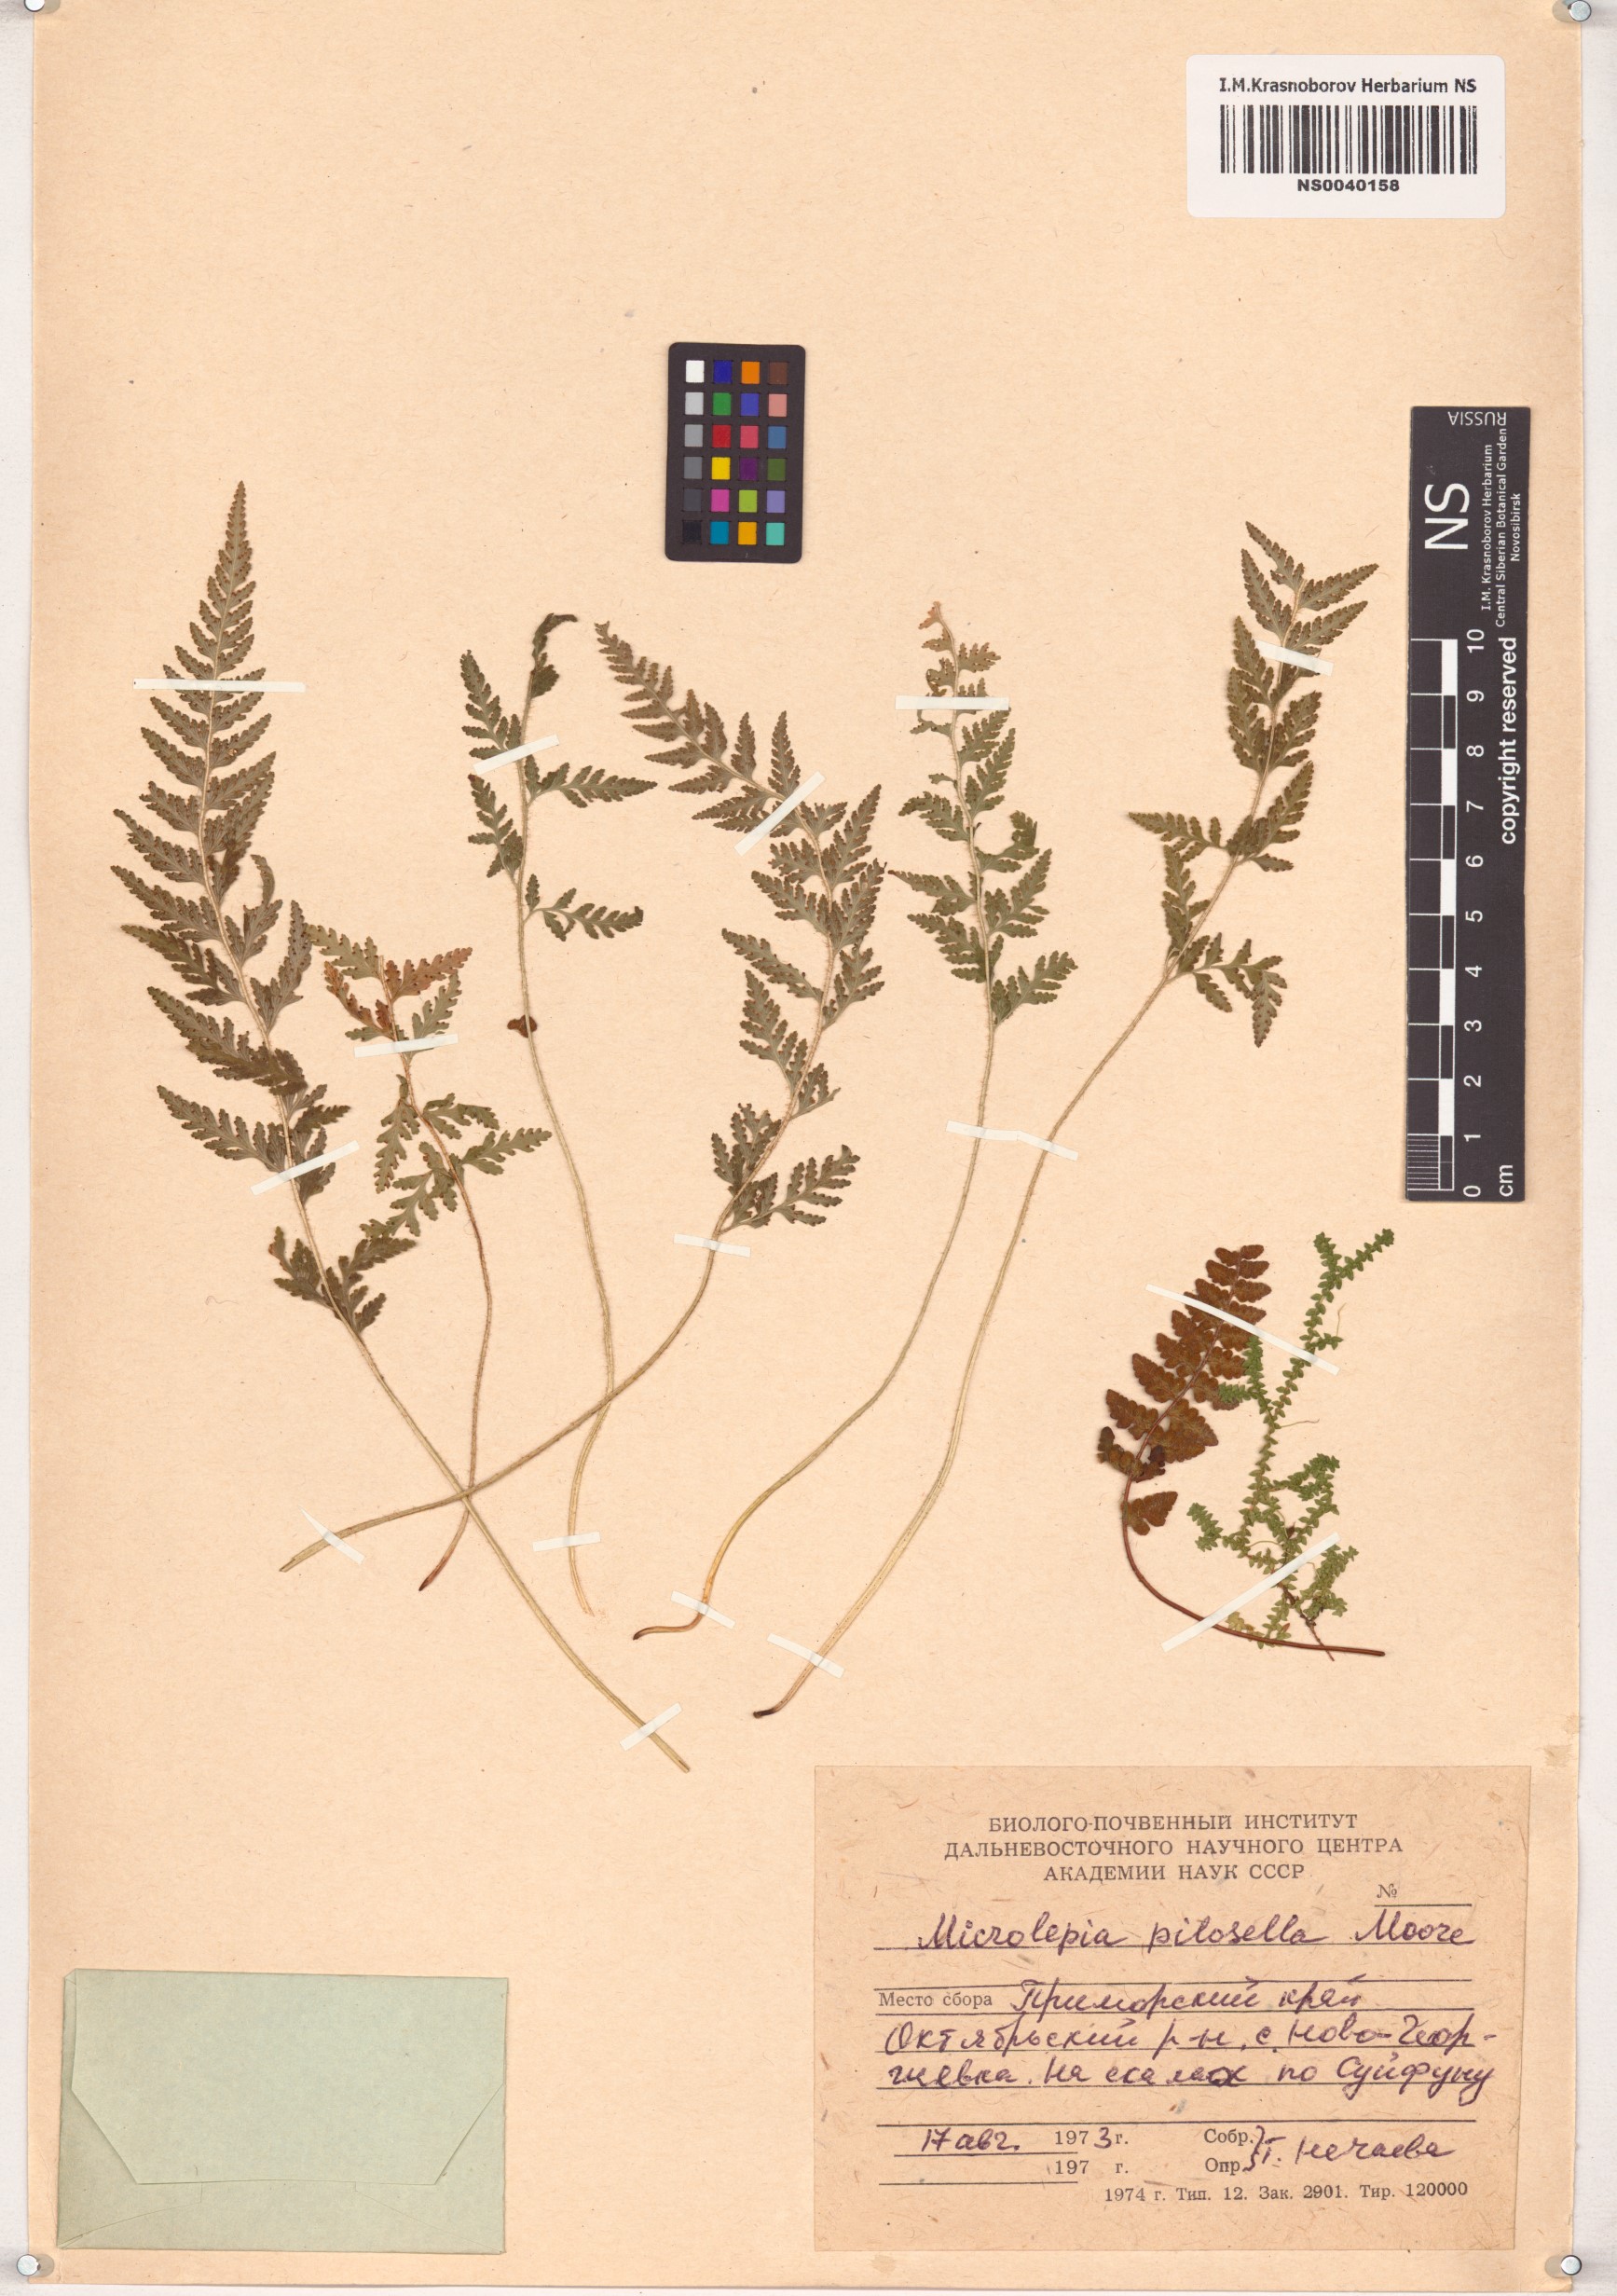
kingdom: Plantae
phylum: Tracheophyta
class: Polypodiopsida
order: Polypodiales
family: Dennstaedtiaceae
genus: Sitobolium
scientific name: Sitobolium hirsutum
